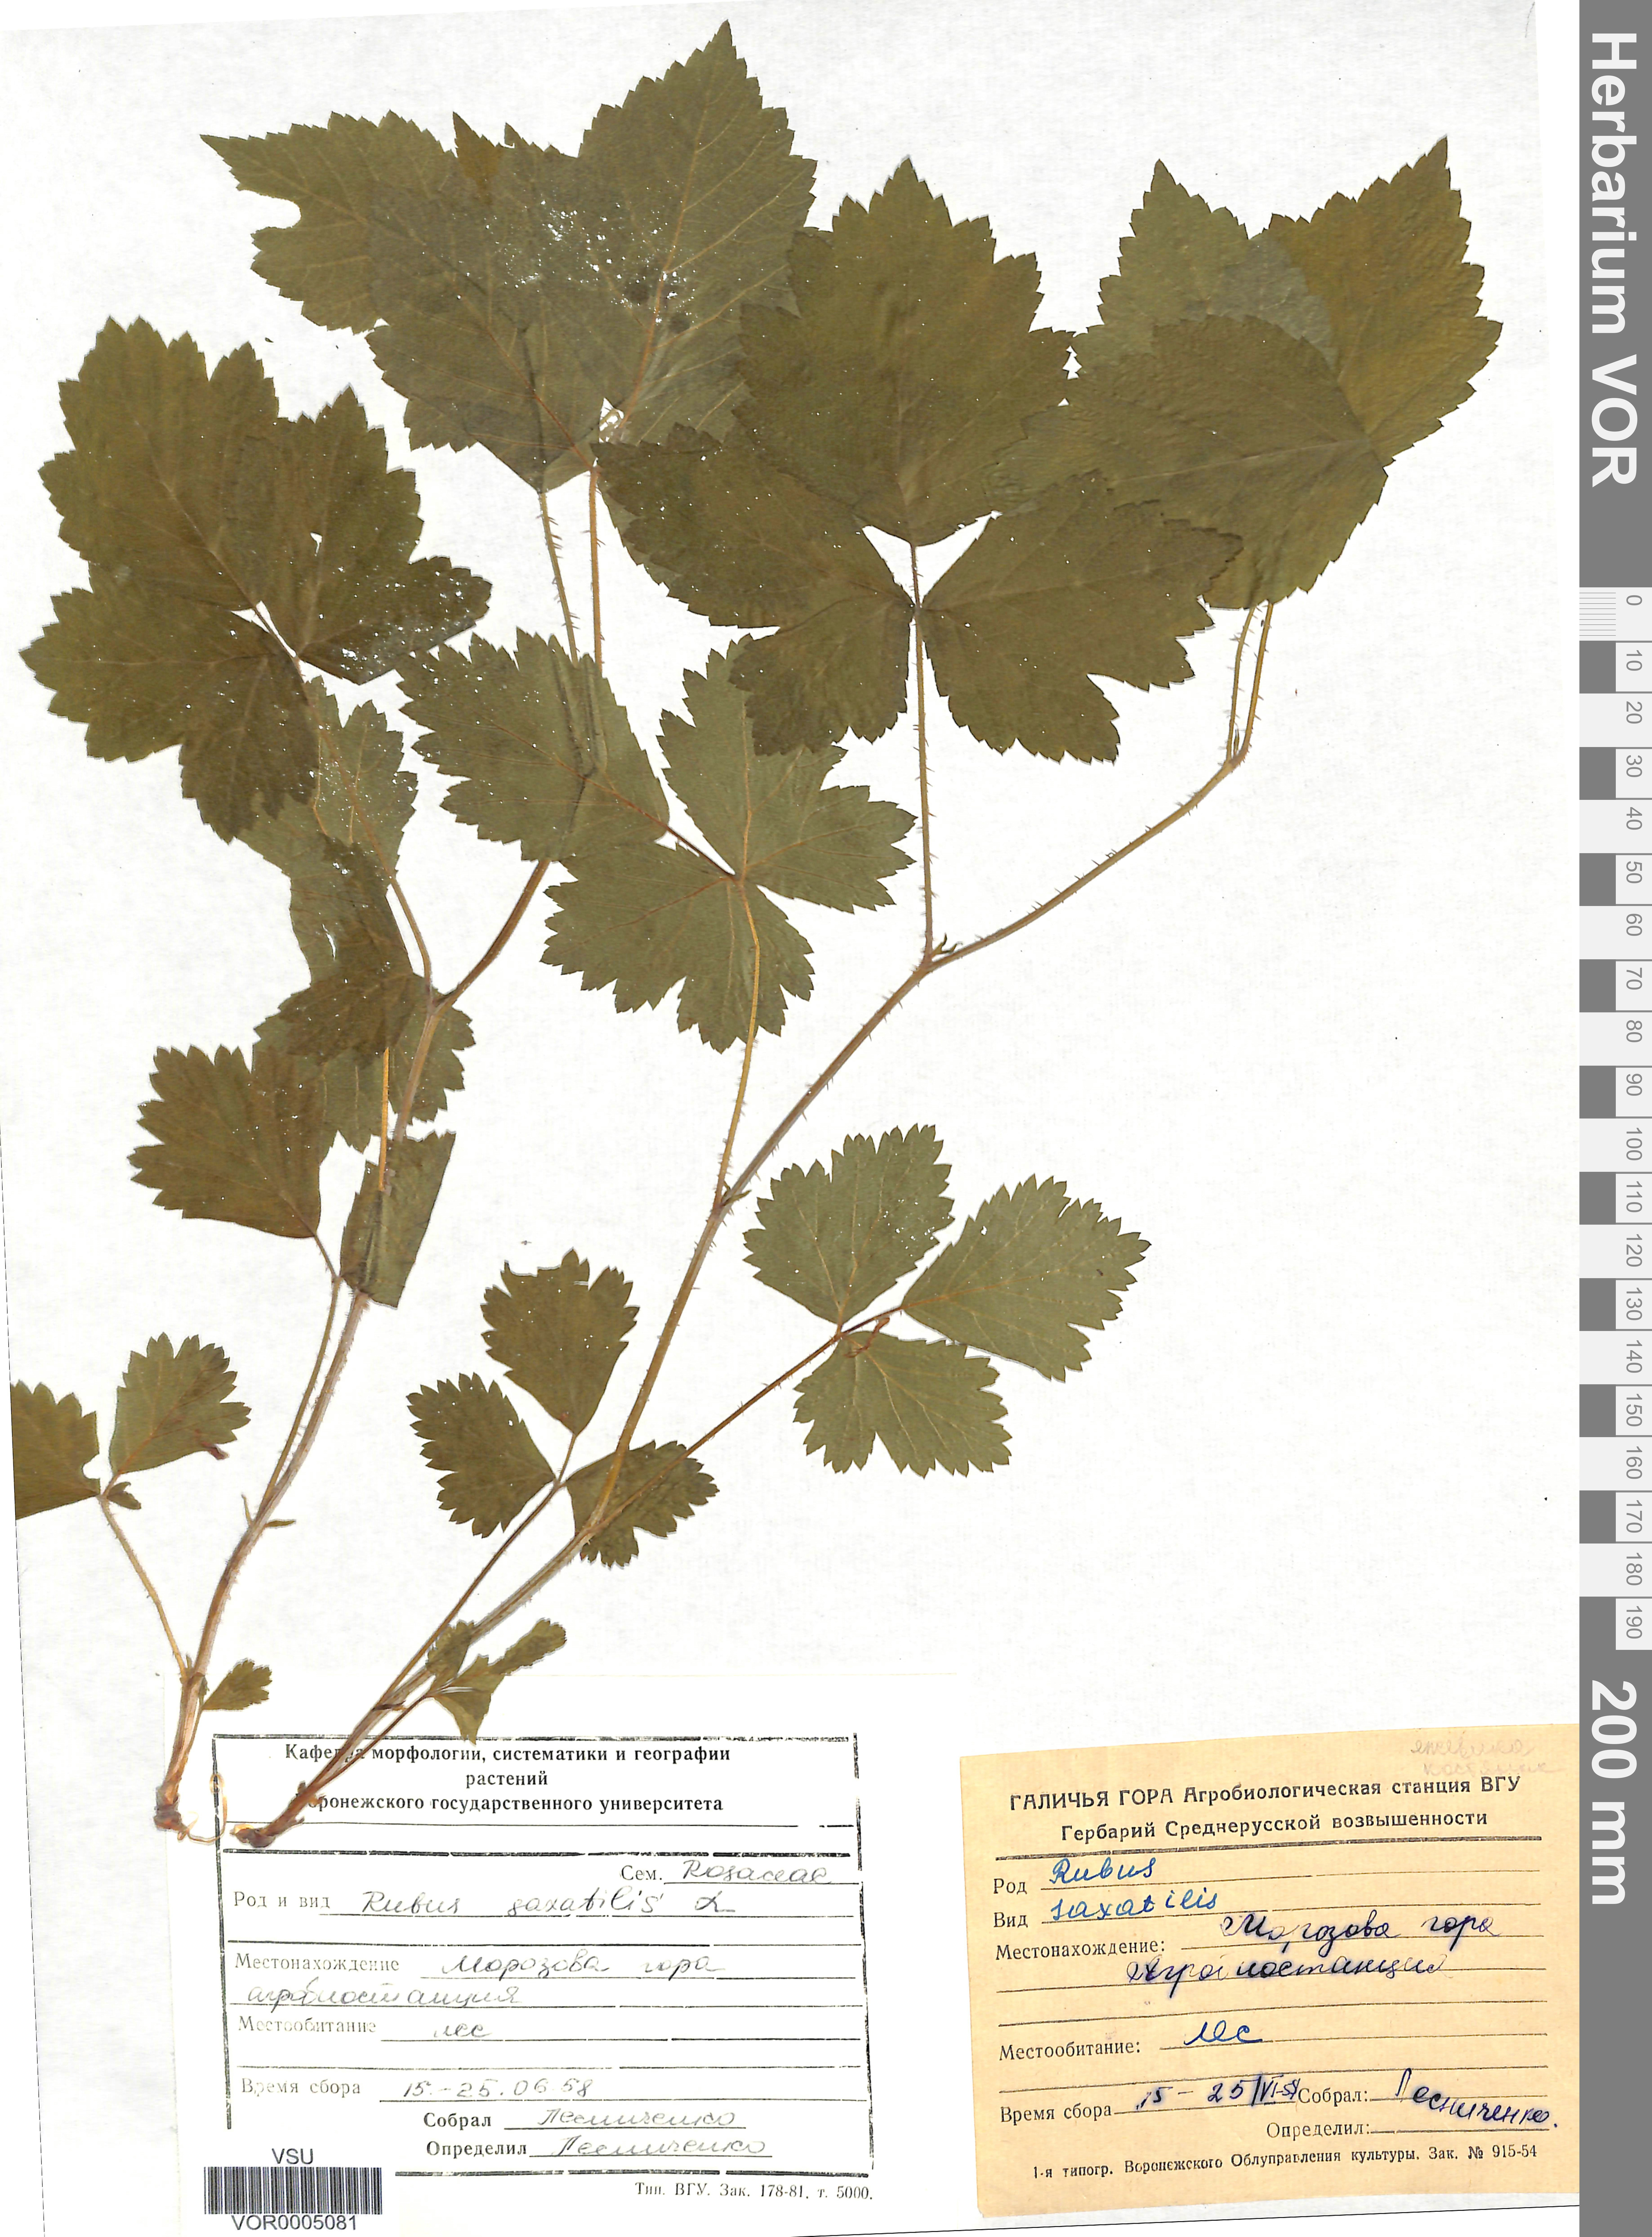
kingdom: Plantae
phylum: Tracheophyta
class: Magnoliopsida
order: Rosales
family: Rosaceae
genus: Rubus
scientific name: Rubus saxatilis
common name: Stone bramble
